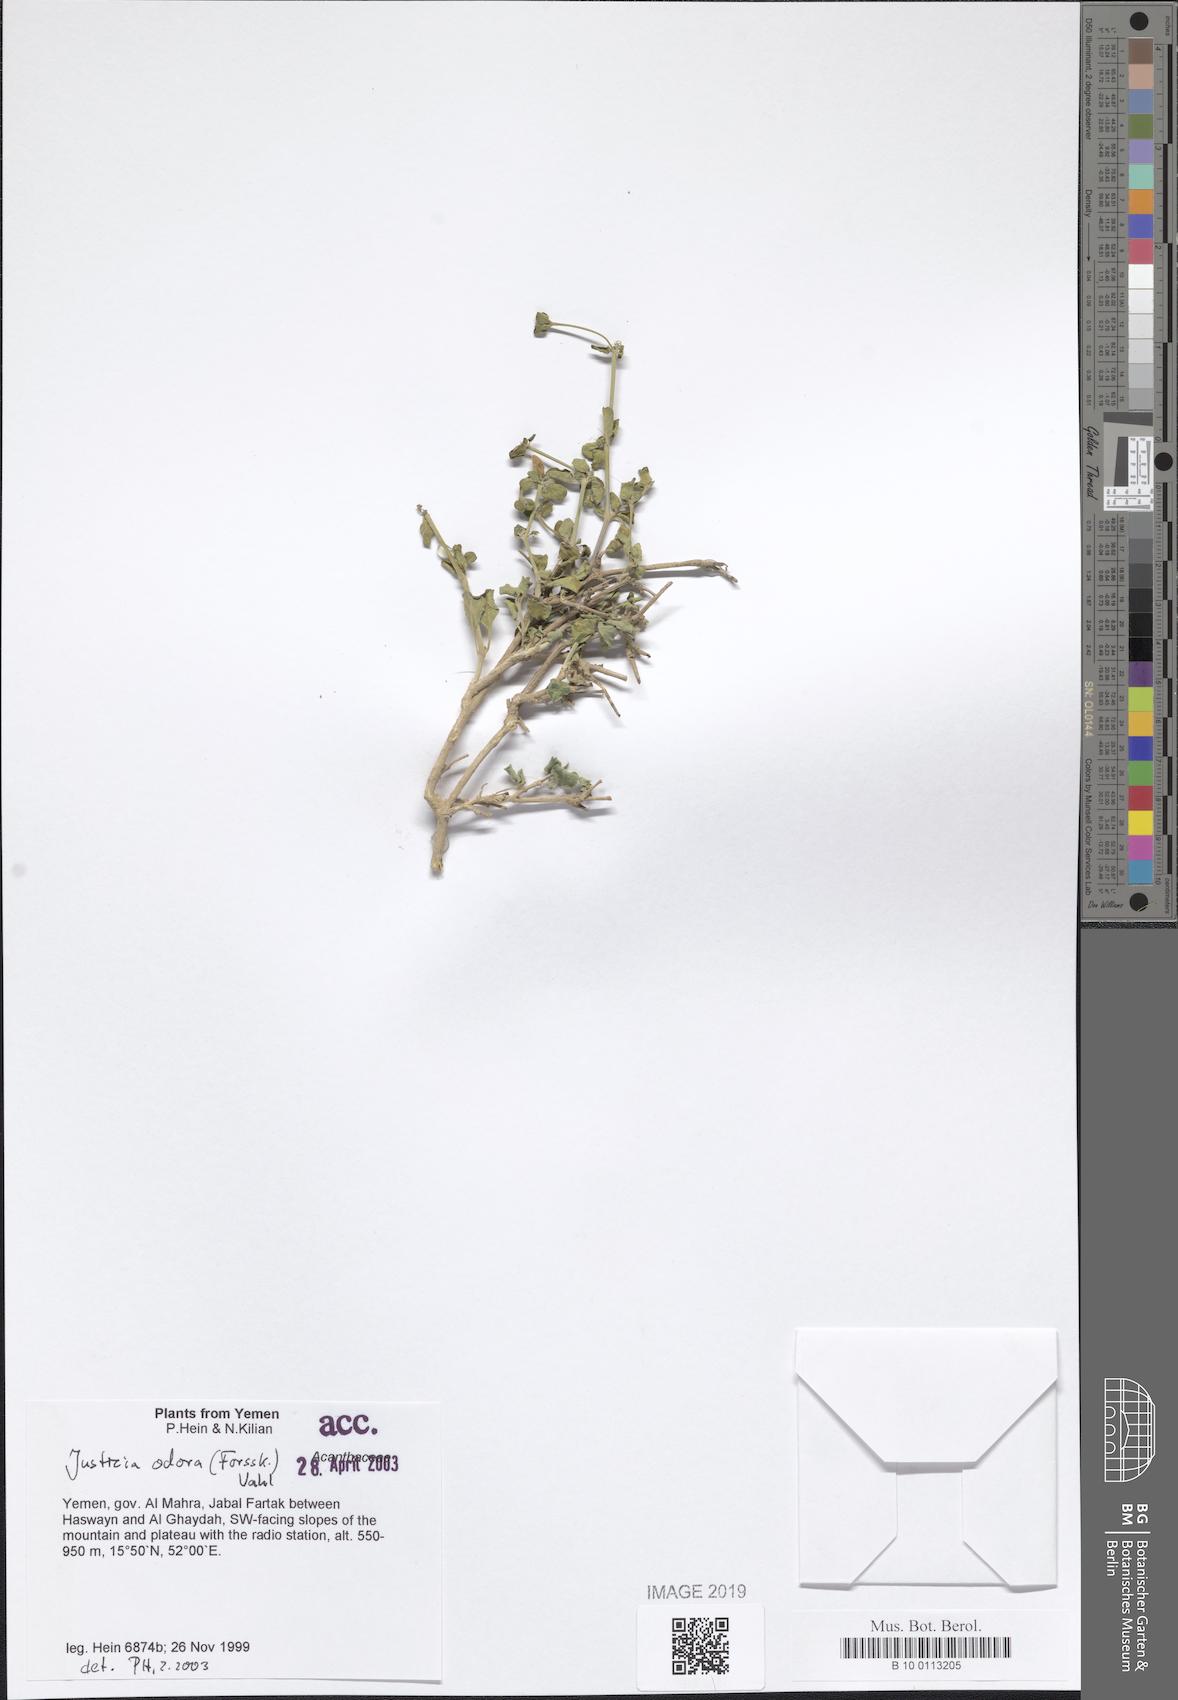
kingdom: Plantae
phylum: Tracheophyta
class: Magnoliopsida
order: Lamiales
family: Acanthaceae
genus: Justicia
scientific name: Justicia odora
